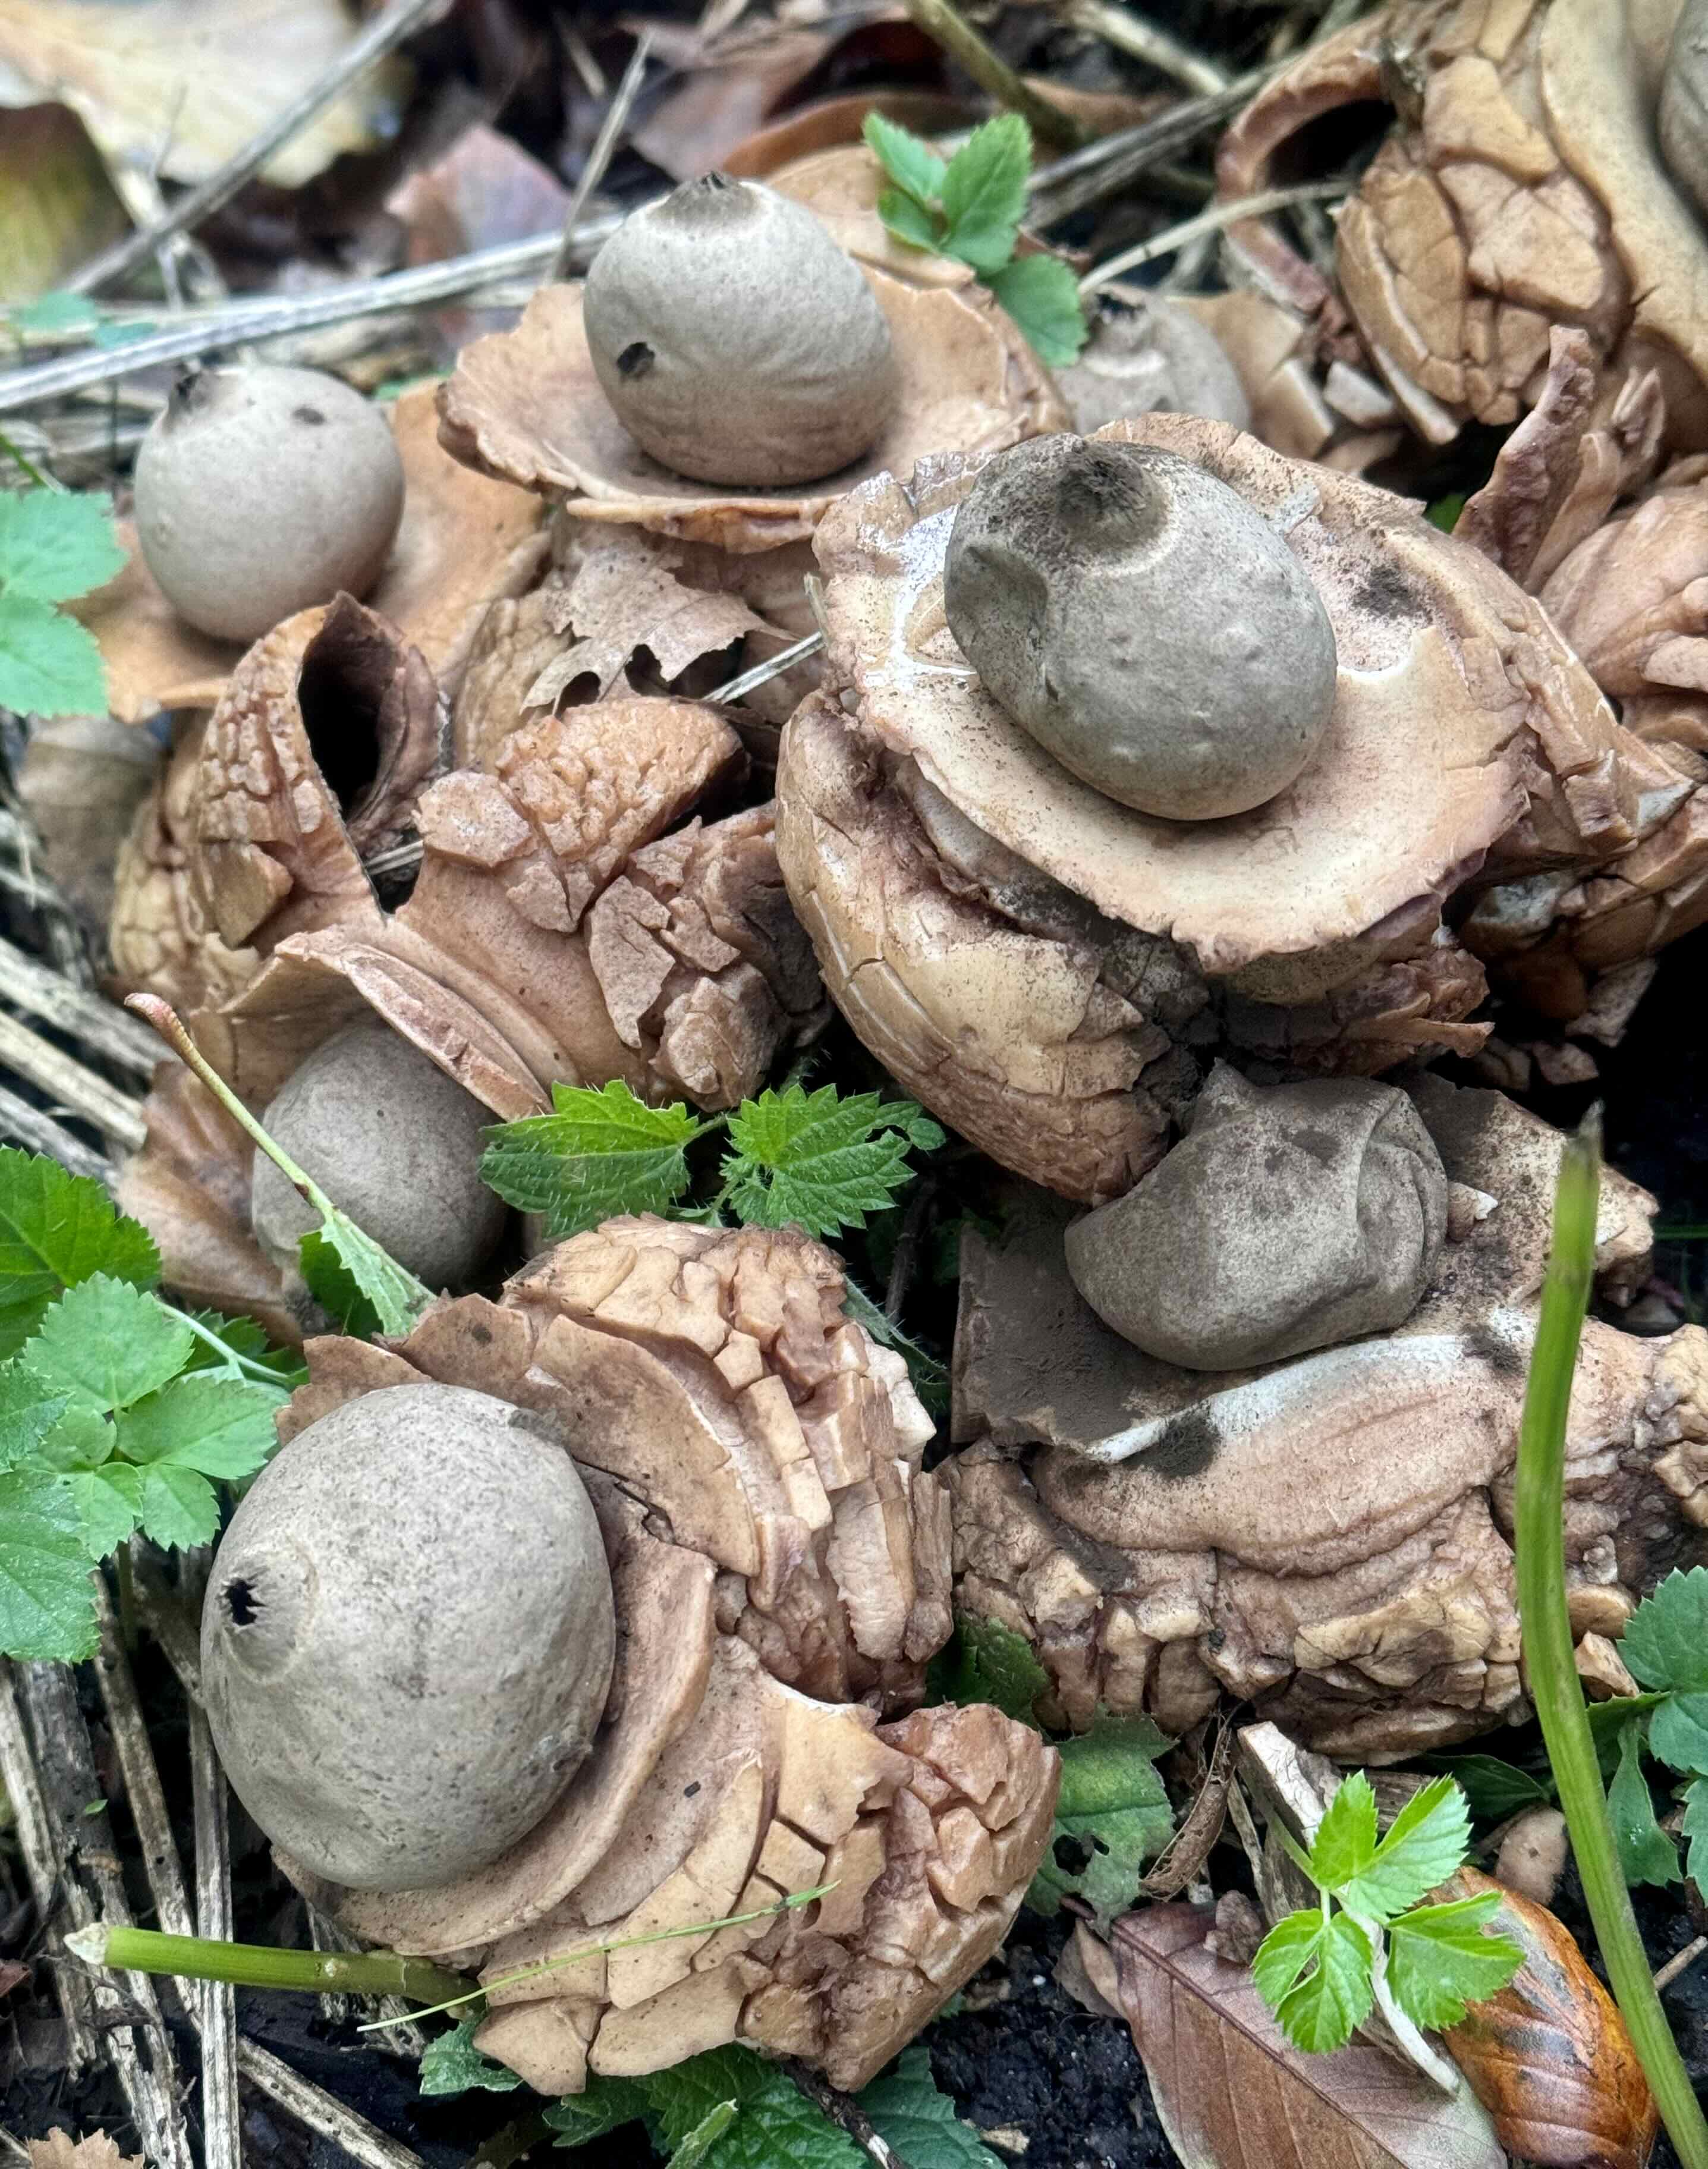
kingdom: Fungi
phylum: Basidiomycota
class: Agaricomycetes
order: Geastrales
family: Geastraceae
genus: Geastrum
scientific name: Geastrum michelianum
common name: kødet stjernebold
